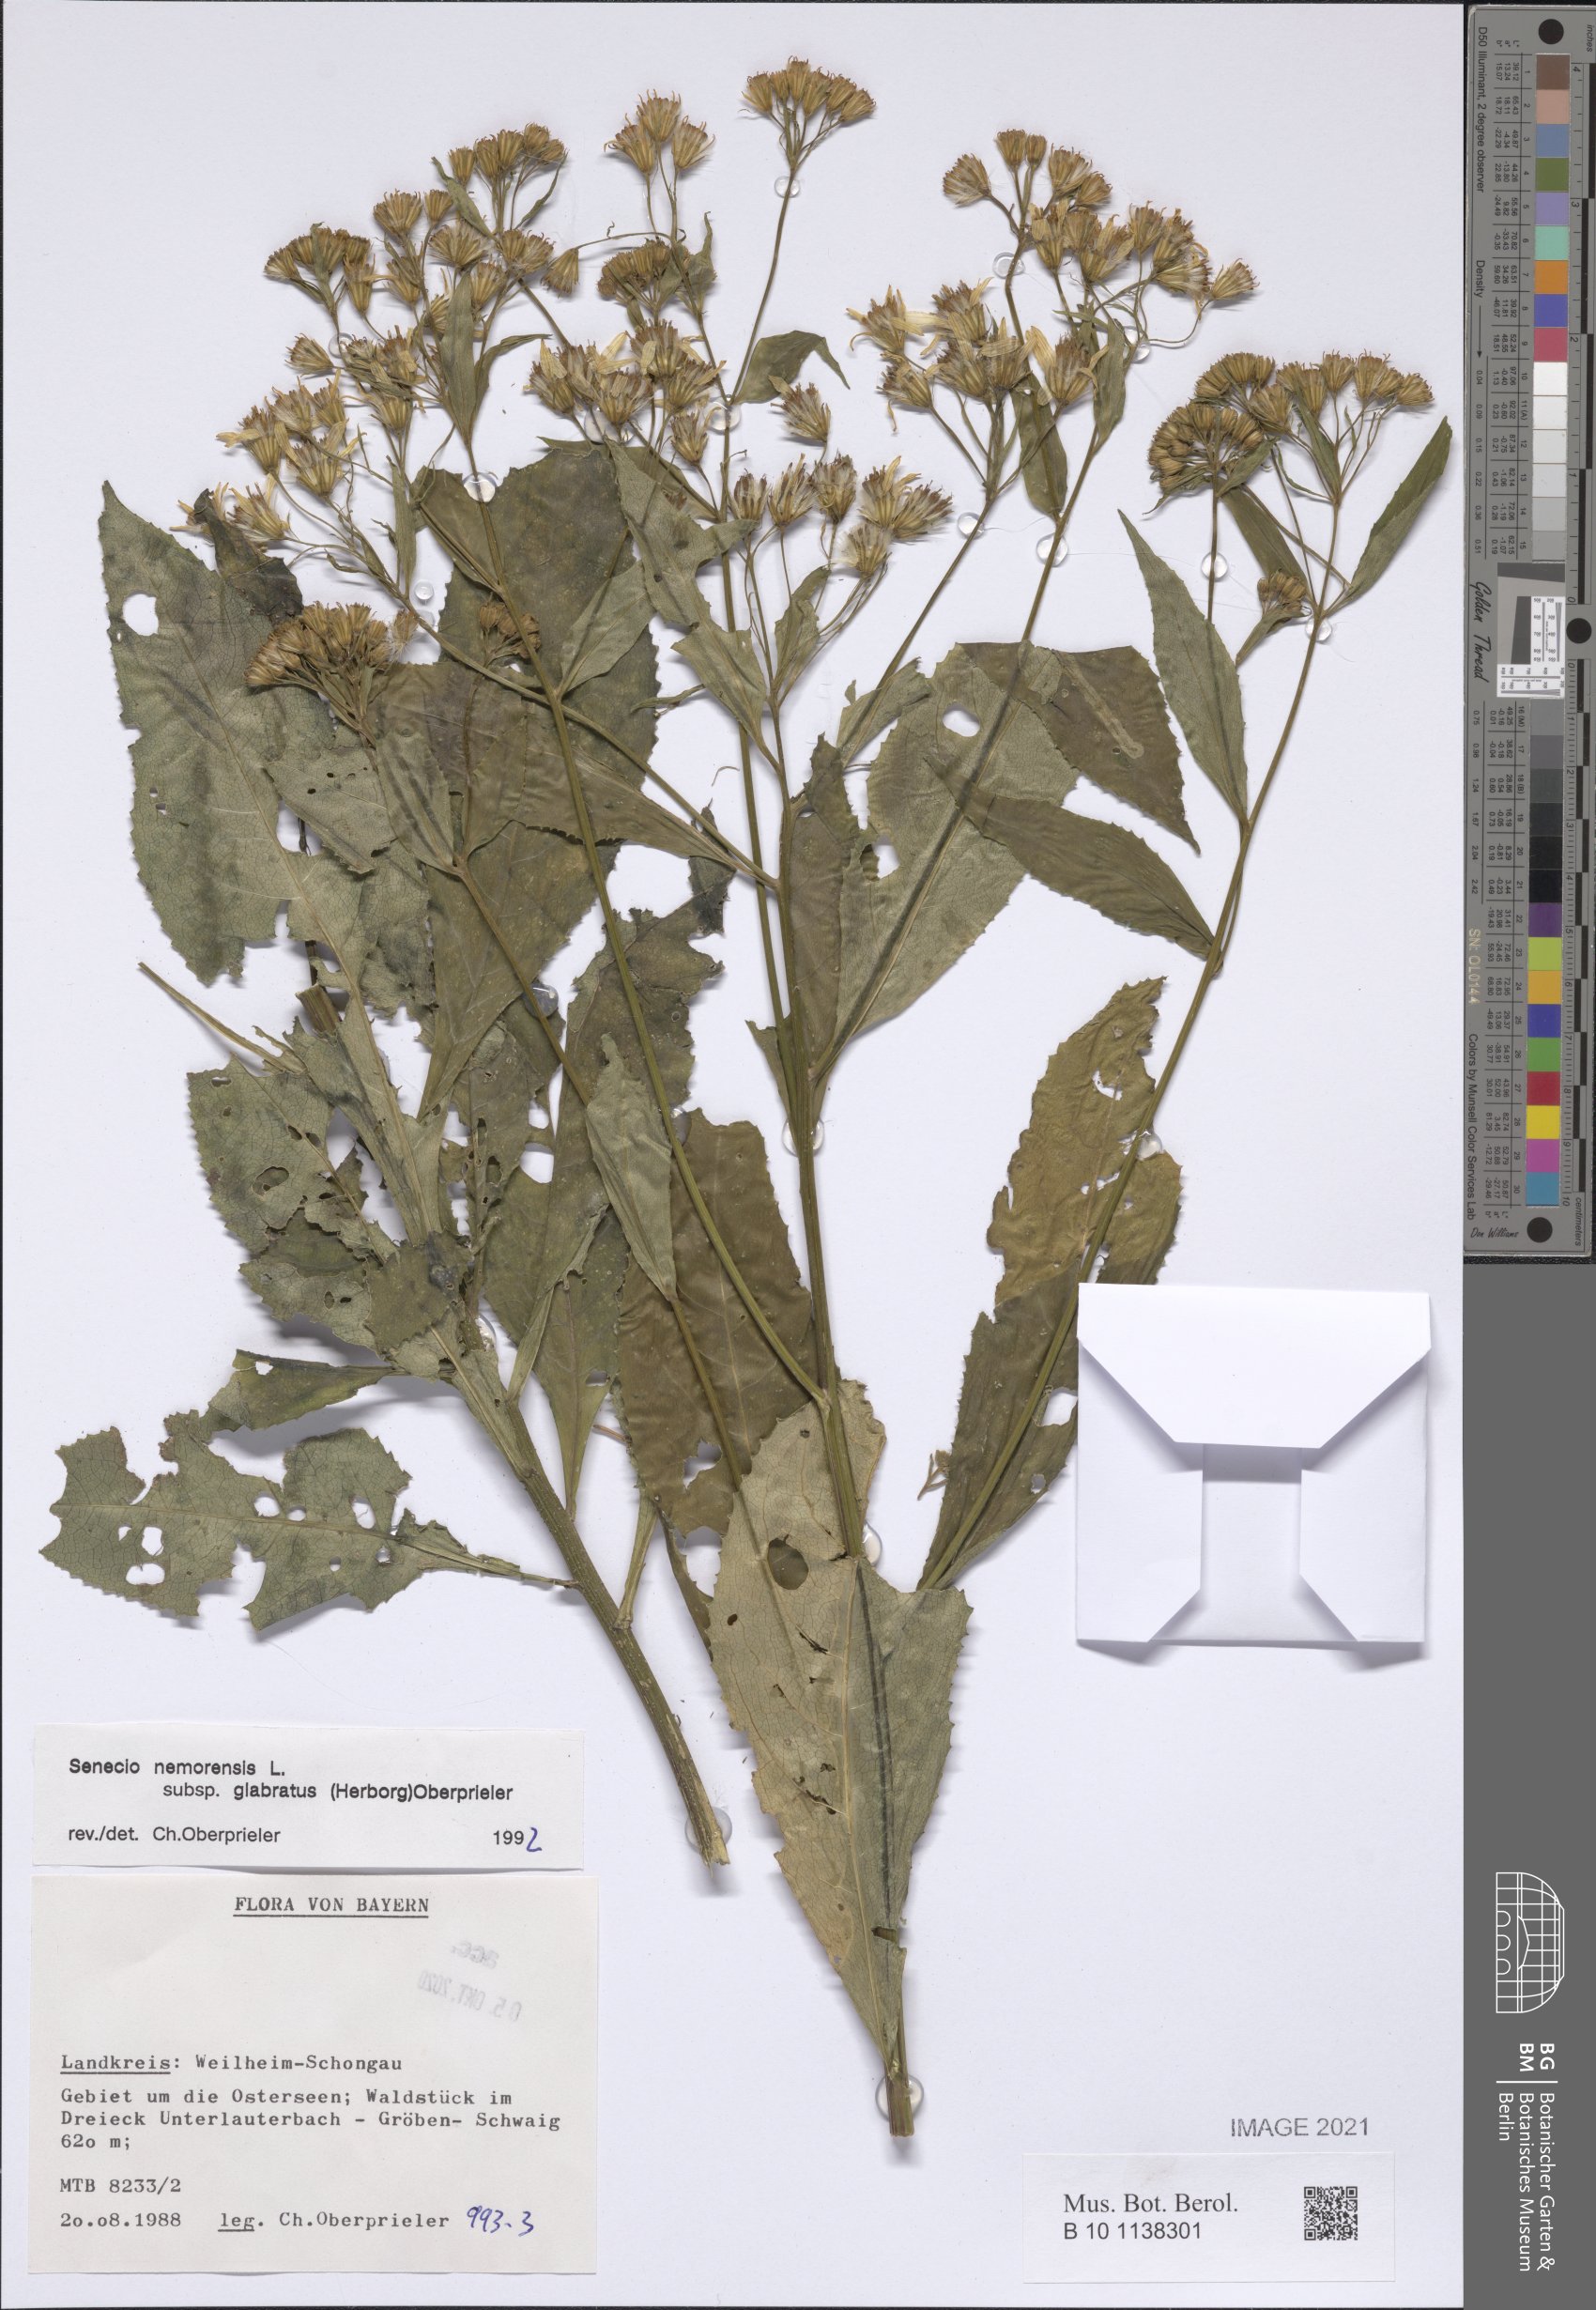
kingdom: Plantae
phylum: Tracheophyta
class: Magnoliopsida
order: Asterales
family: Asteraceae
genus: Senecio
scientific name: Senecio germanicus
